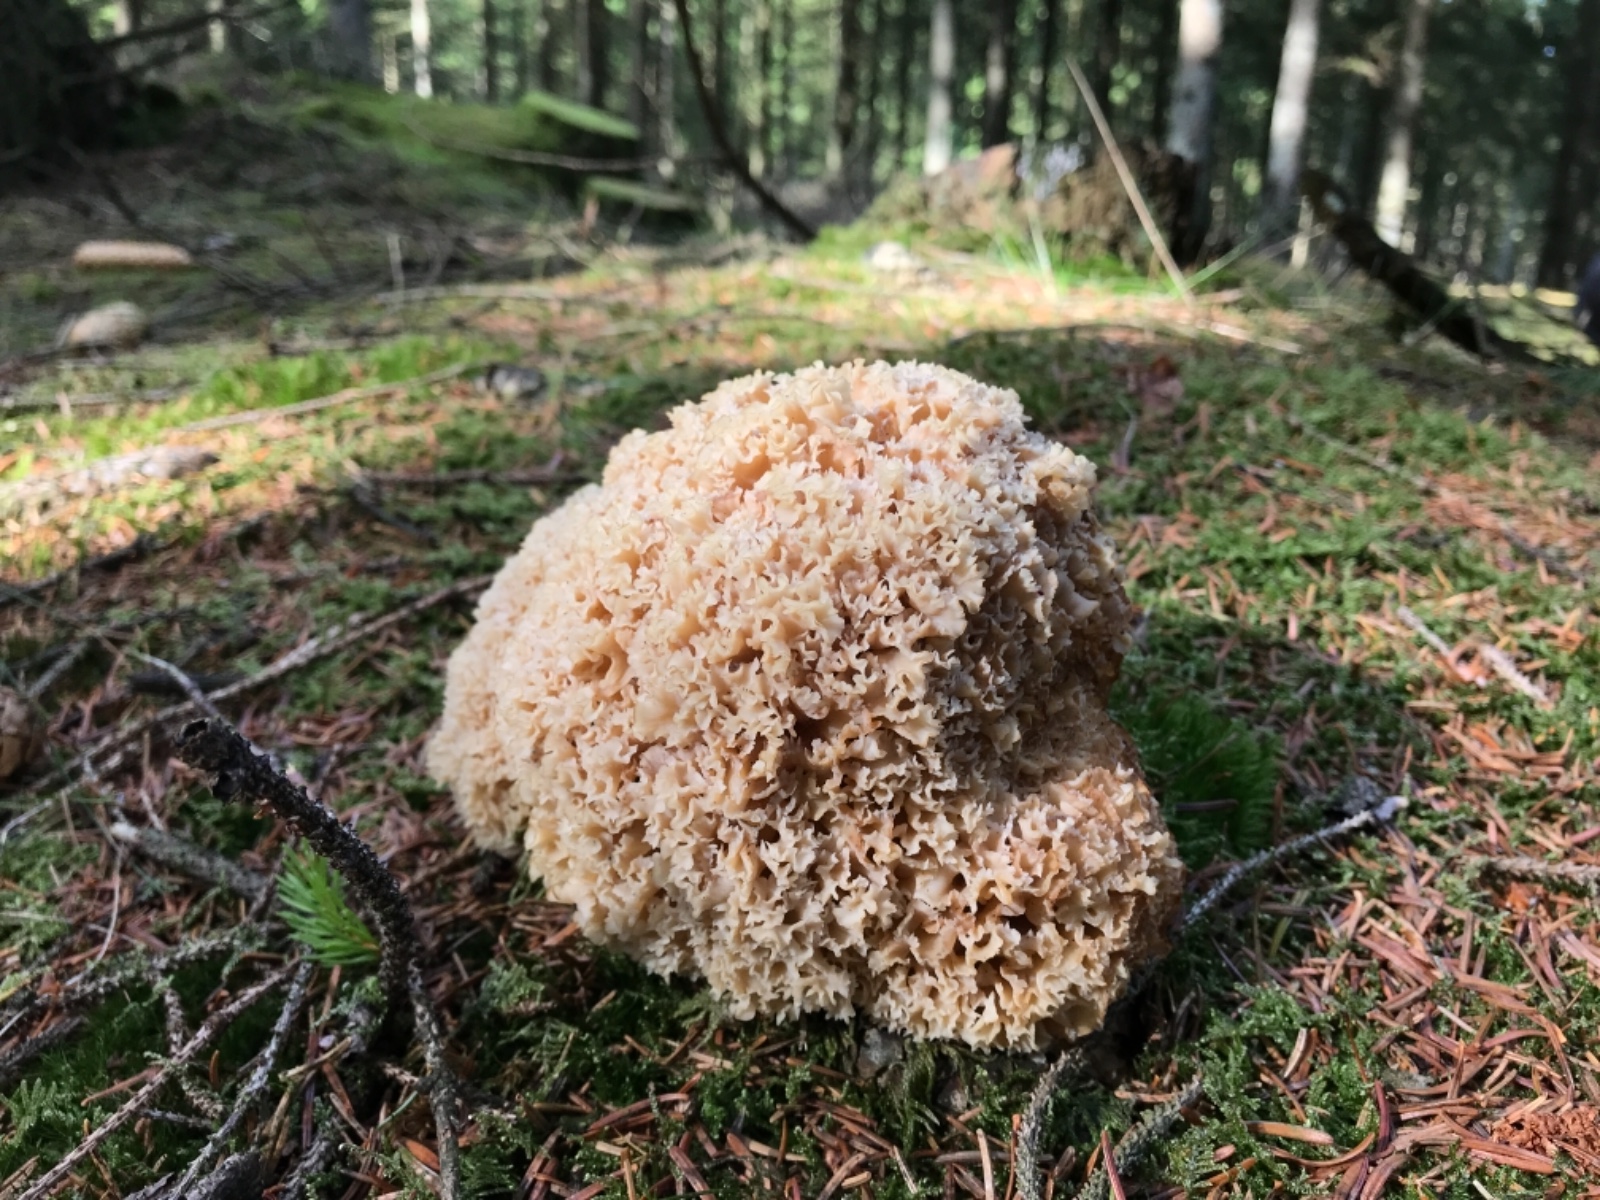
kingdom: Fungi
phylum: Basidiomycota
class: Agaricomycetes
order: Polyporales
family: Sparassidaceae
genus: Sparassis
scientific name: Sparassis crispa
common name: kruset blomkålssvamp
